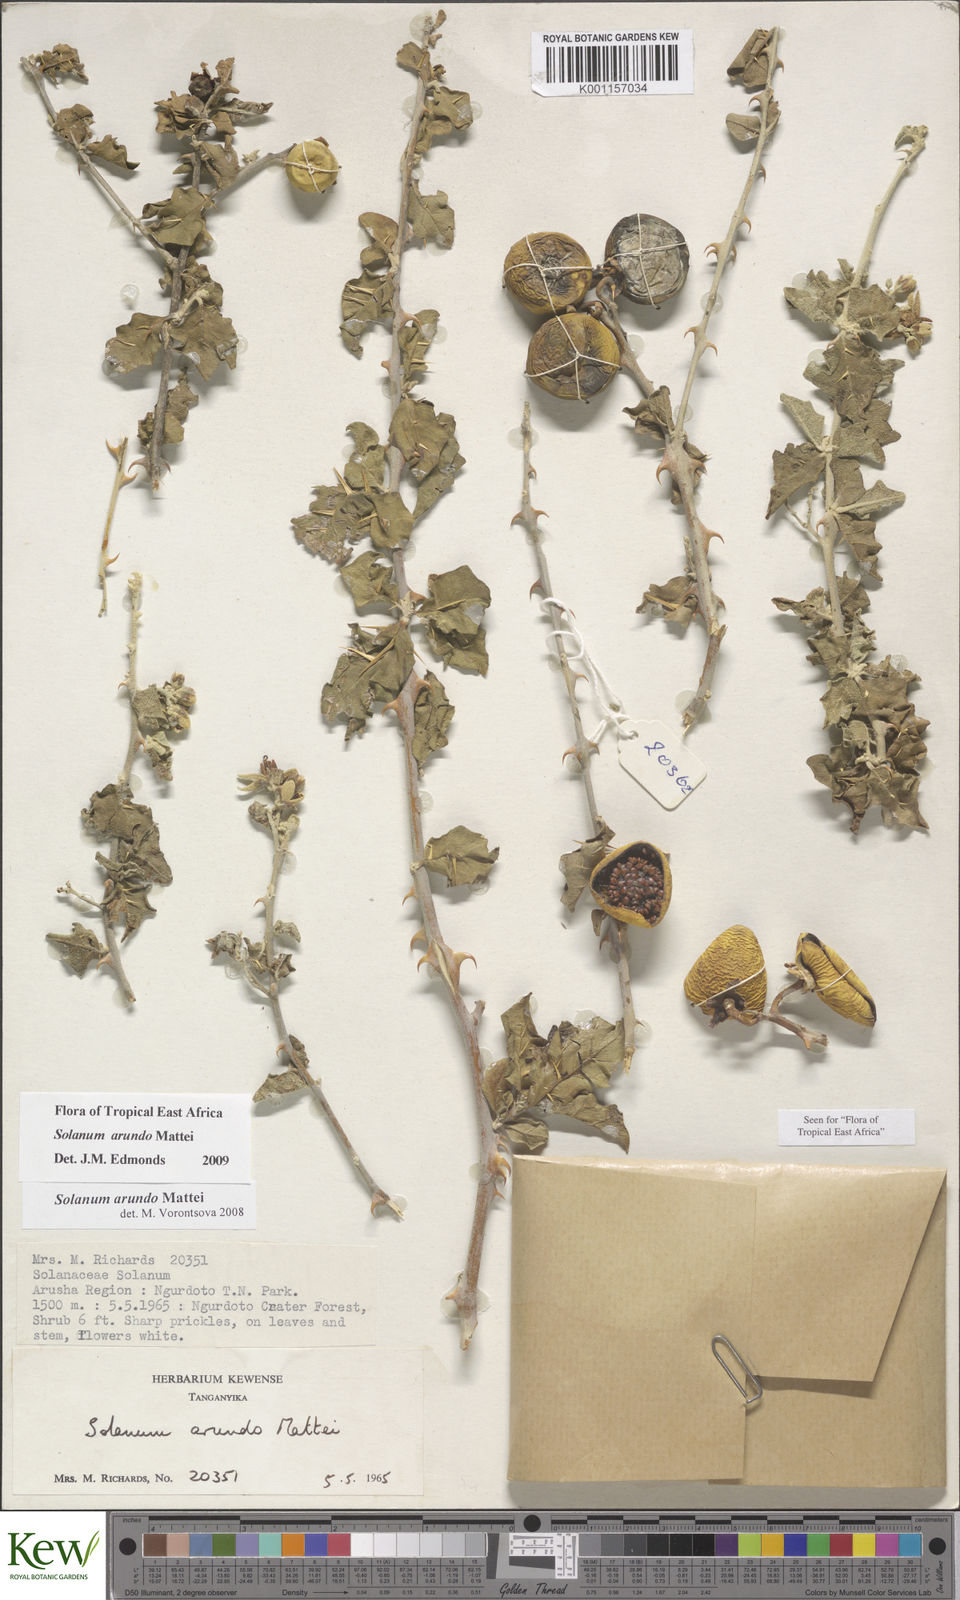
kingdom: Plantae
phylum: Tracheophyta
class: Magnoliopsida
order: Solanales
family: Solanaceae
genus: Solanum
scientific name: Solanum arundo
